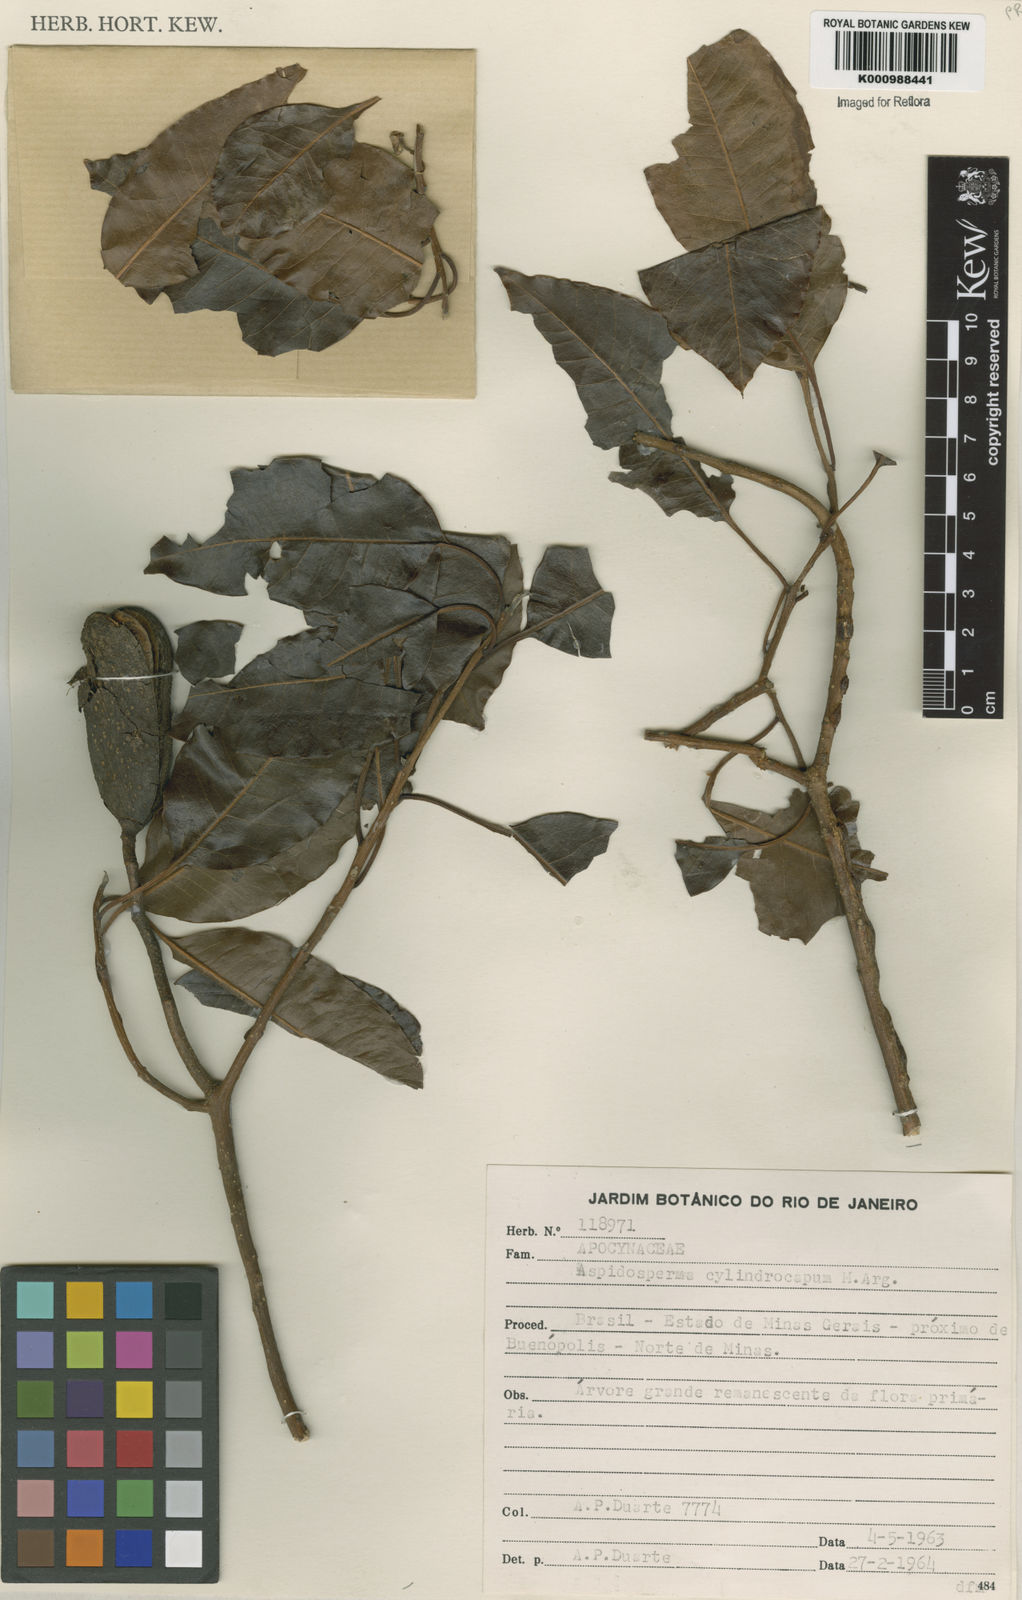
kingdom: Plantae
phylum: Tracheophyta
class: Magnoliopsida
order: Gentianales
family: Apocynaceae
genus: Aspidosperma
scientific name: Aspidosperma
